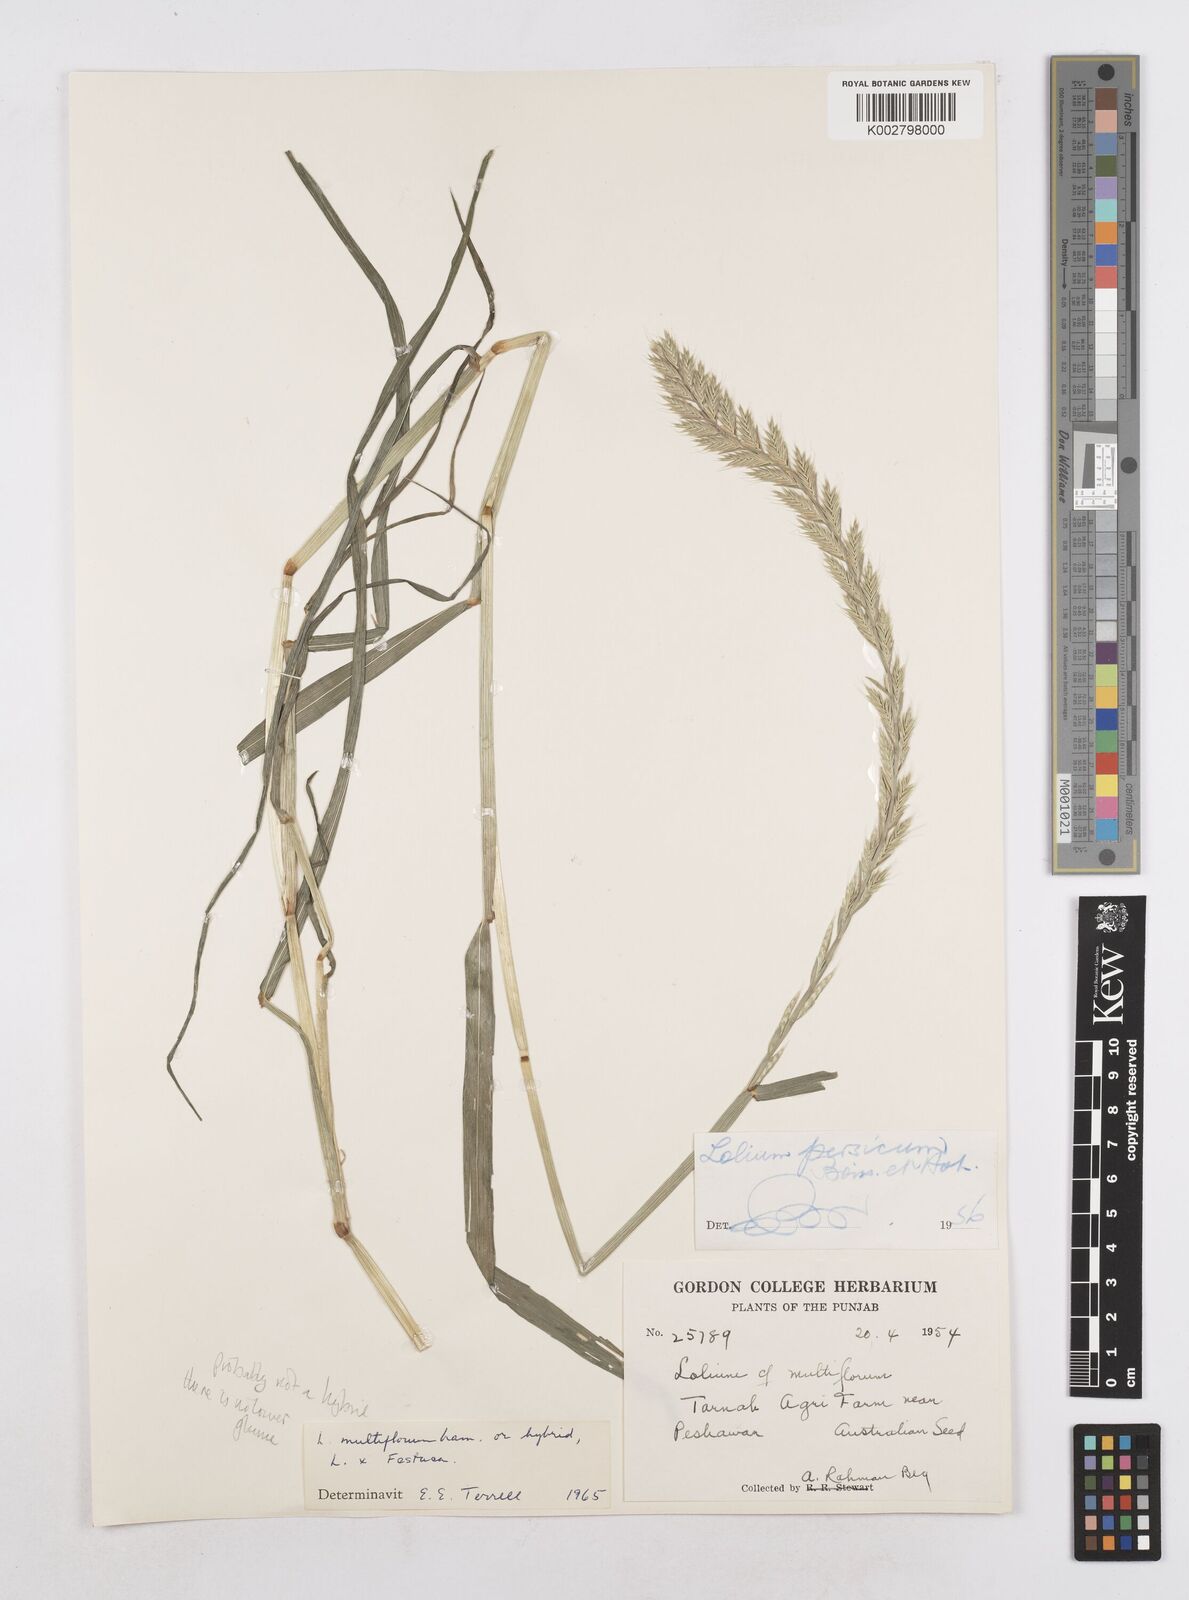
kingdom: Plantae
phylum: Tracheophyta
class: Liliopsida
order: Poales
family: Poaceae
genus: Lolium
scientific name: Lolium multiflorum
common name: Annual ryegrass
